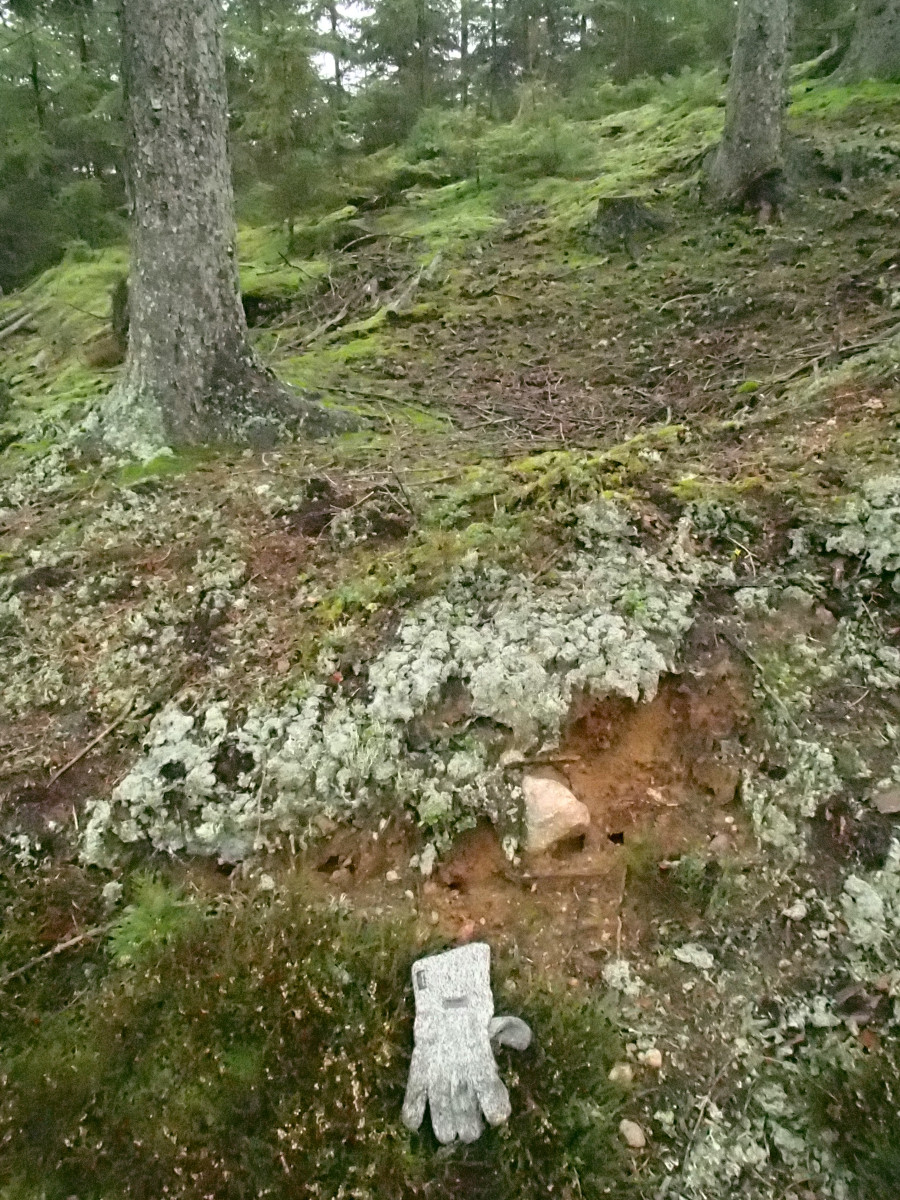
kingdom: Fungi
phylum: Ascomycota
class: Lecanoromycetes
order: Baeomycetales
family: Trapeliaceae
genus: Trapeliopsis
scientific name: Trapeliopsis granulosa
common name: forskelligfarvet skivelav
